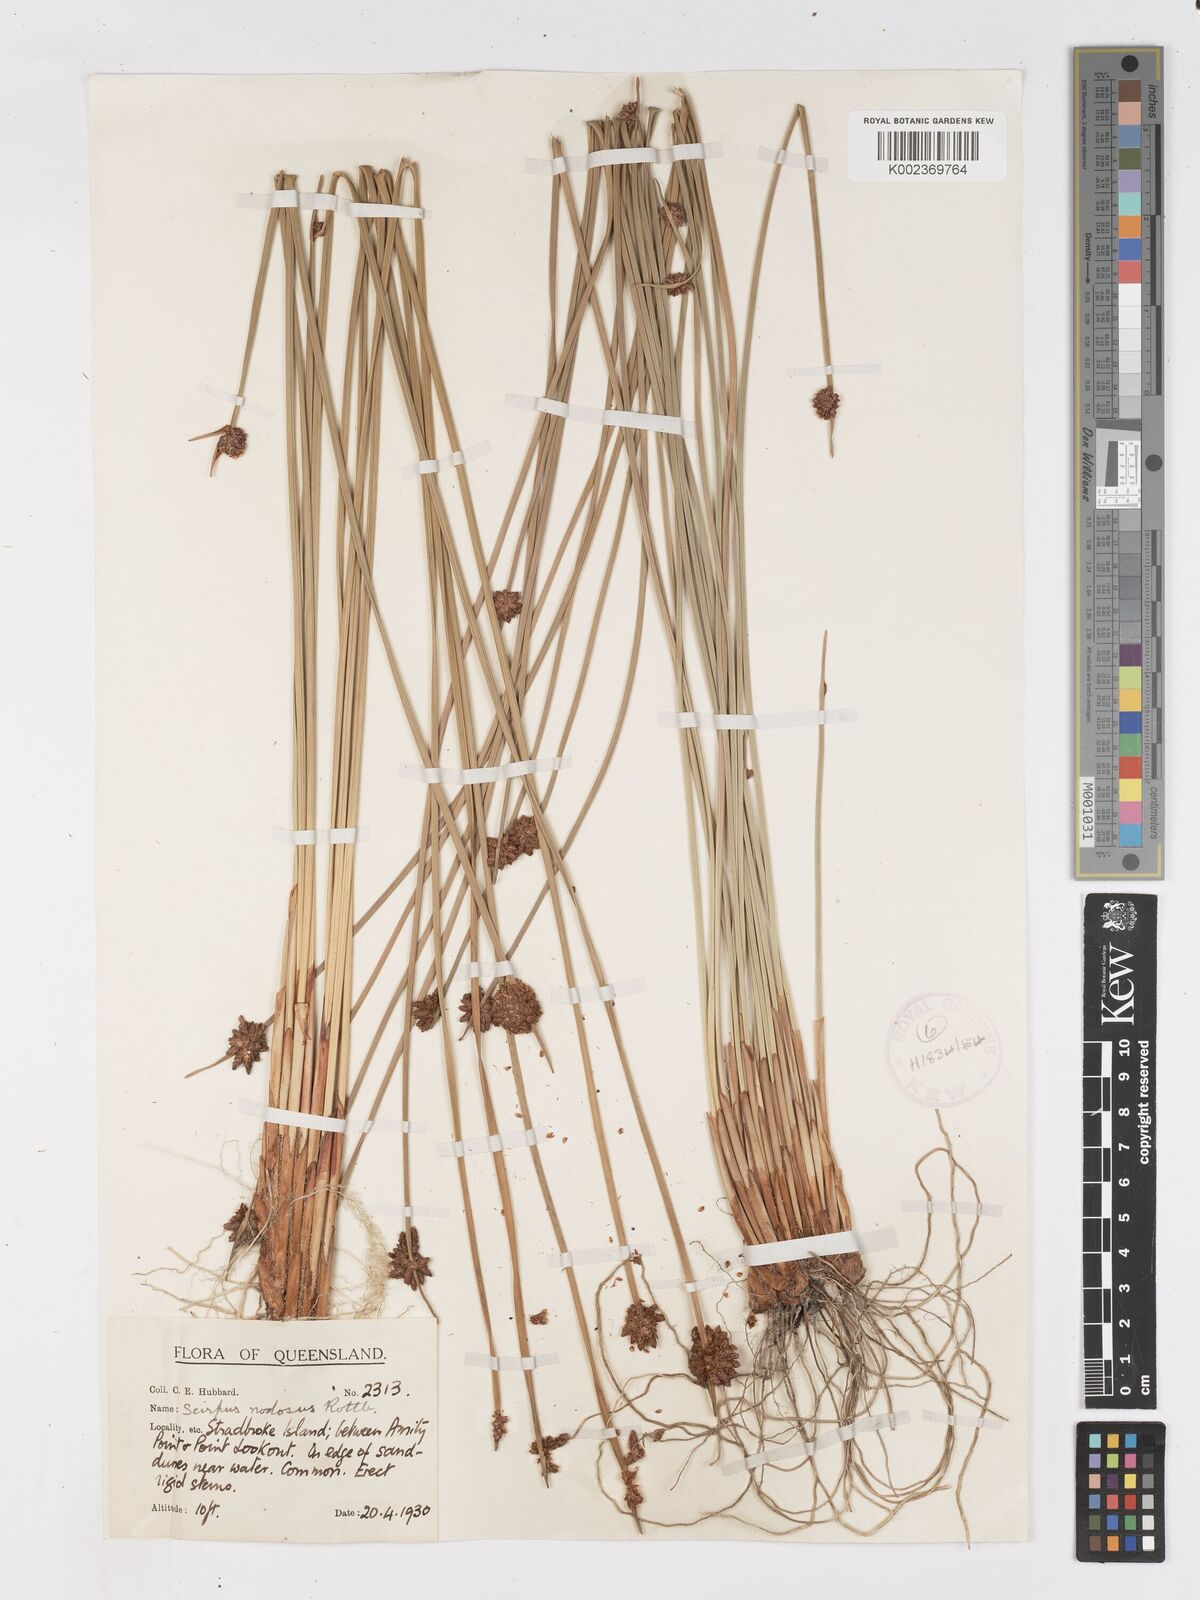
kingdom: Plantae
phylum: Tracheophyta
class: Liliopsida
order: Poales
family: Cyperaceae
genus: Ficinia
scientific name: Ficinia nodosa
